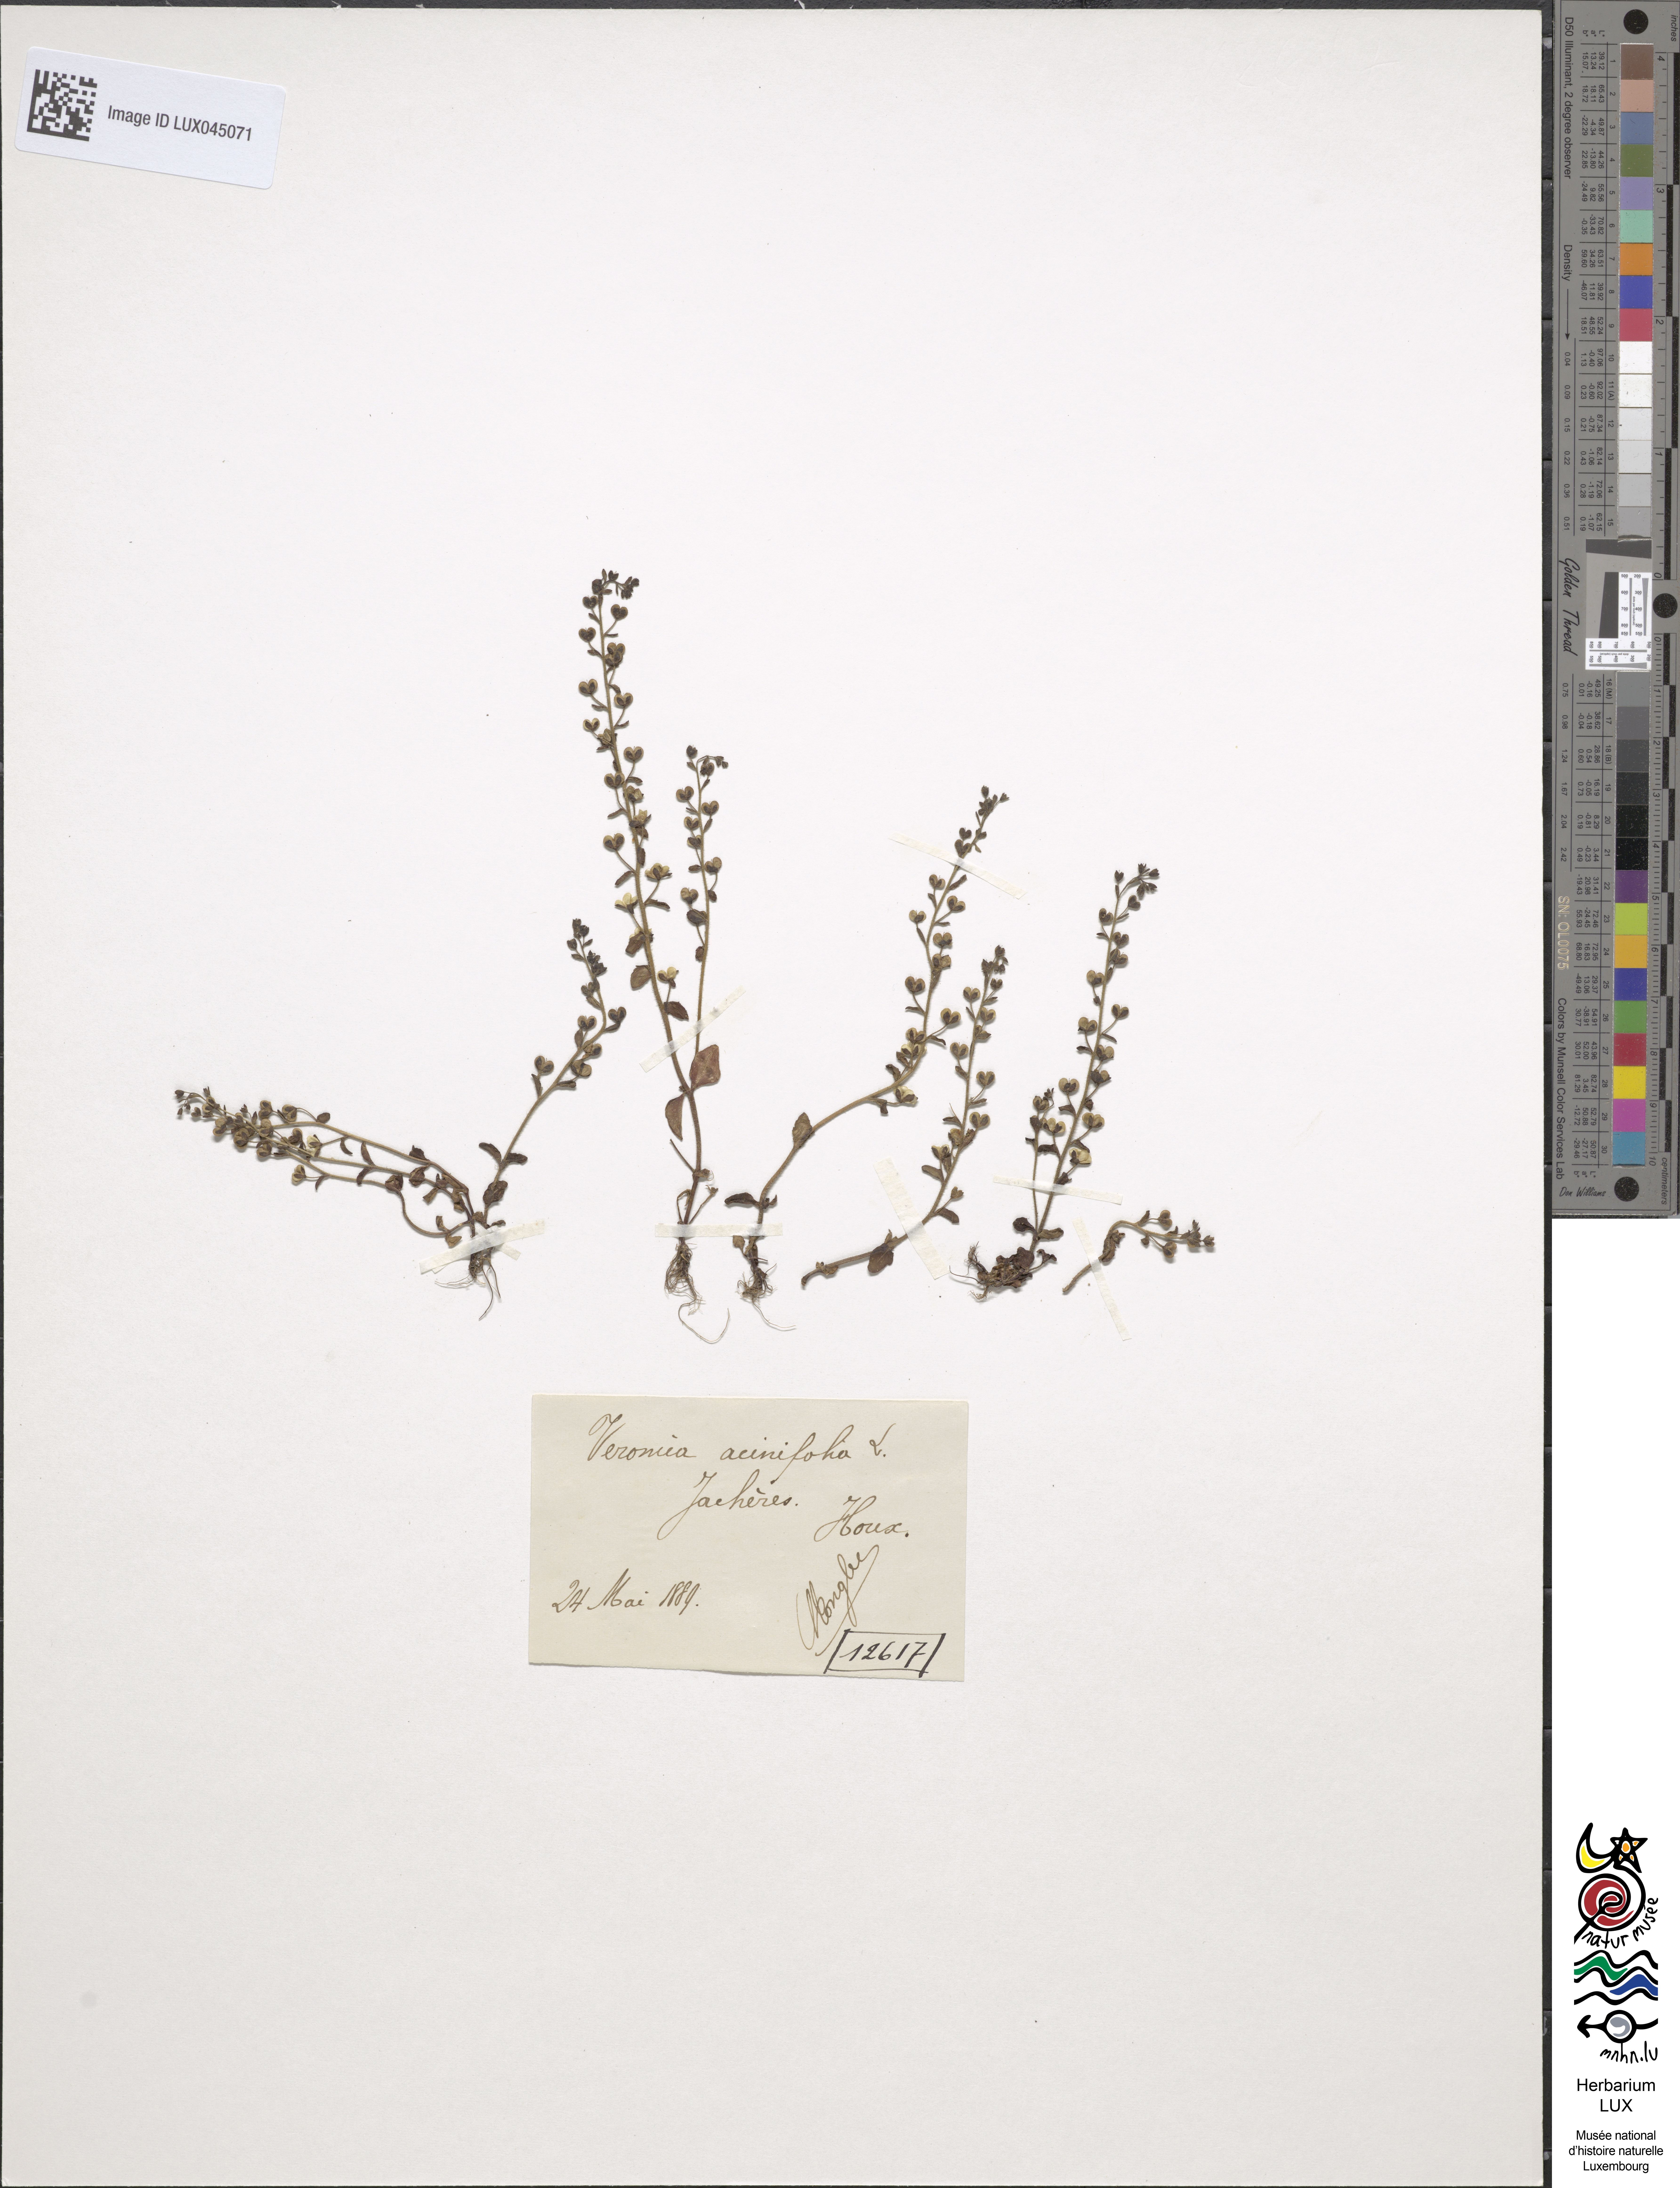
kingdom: Plantae
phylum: Tracheophyta
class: Magnoliopsida
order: Lamiales
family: Plantaginaceae
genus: Veronica
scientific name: Veronica acinifolia
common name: French speedwell
